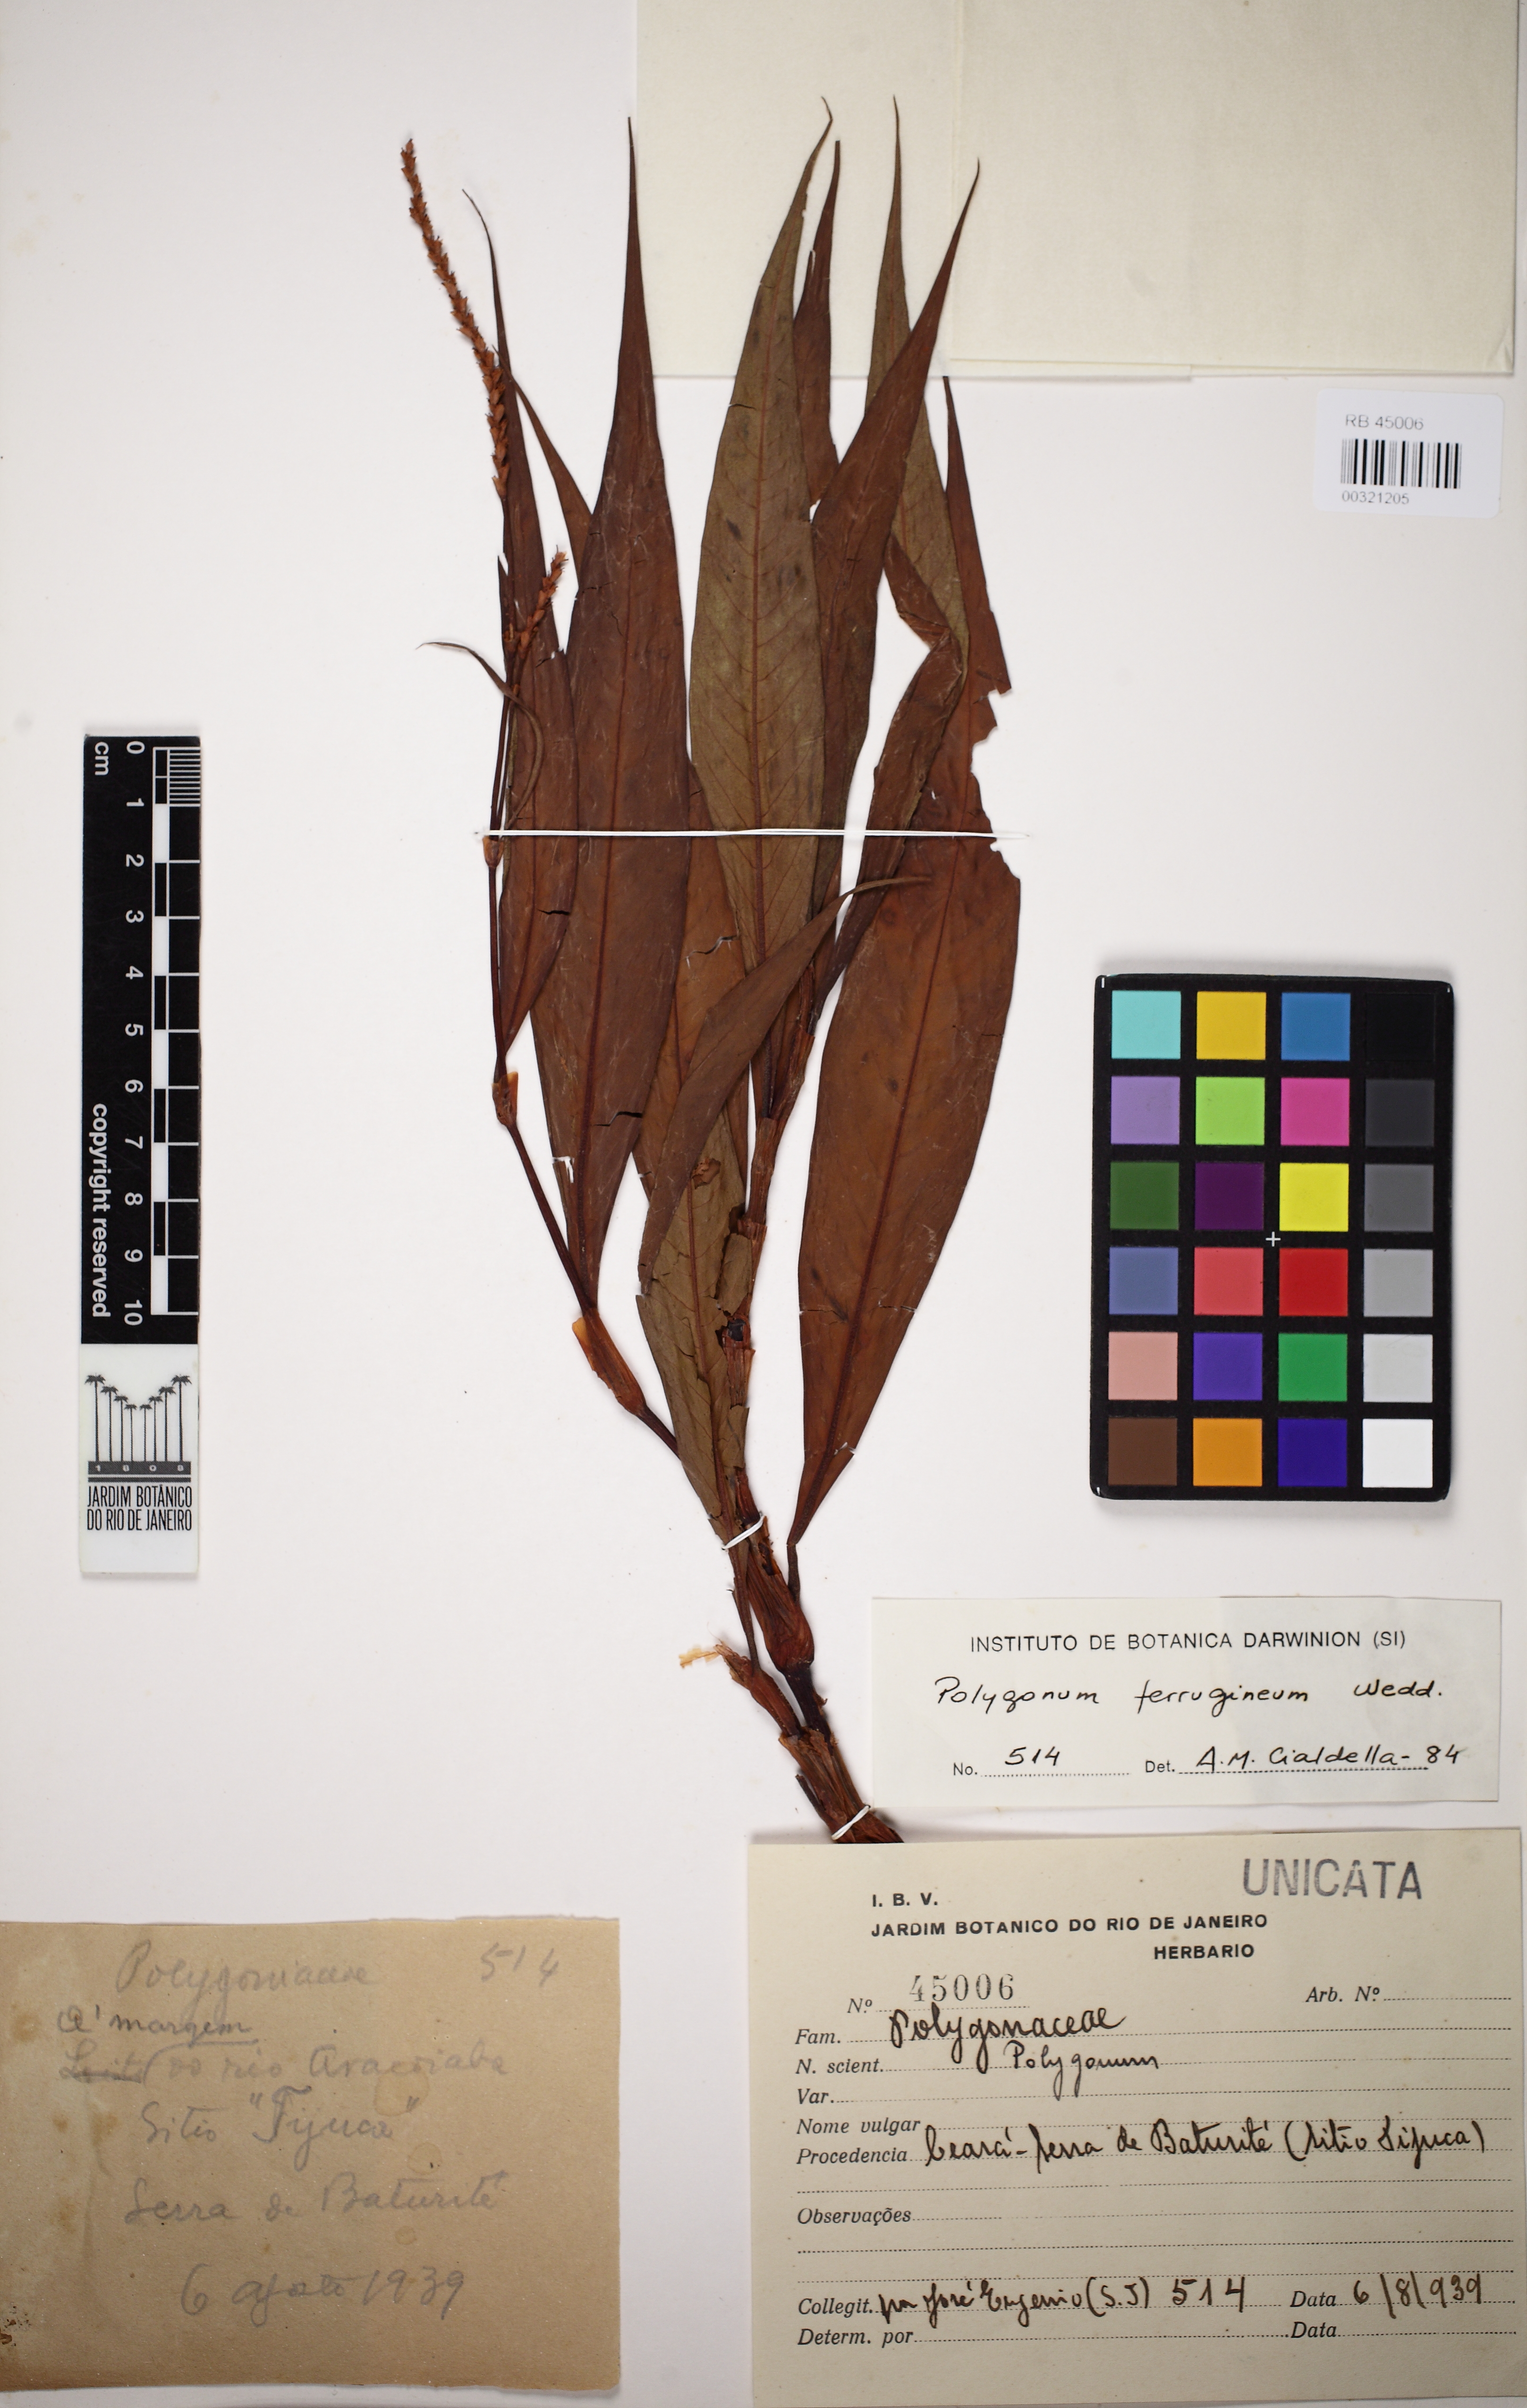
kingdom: Plantae
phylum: Tracheophyta
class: Magnoliopsida
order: Caryophyllales
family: Polygonaceae
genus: Persicaria
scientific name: Persicaria ferruginea
